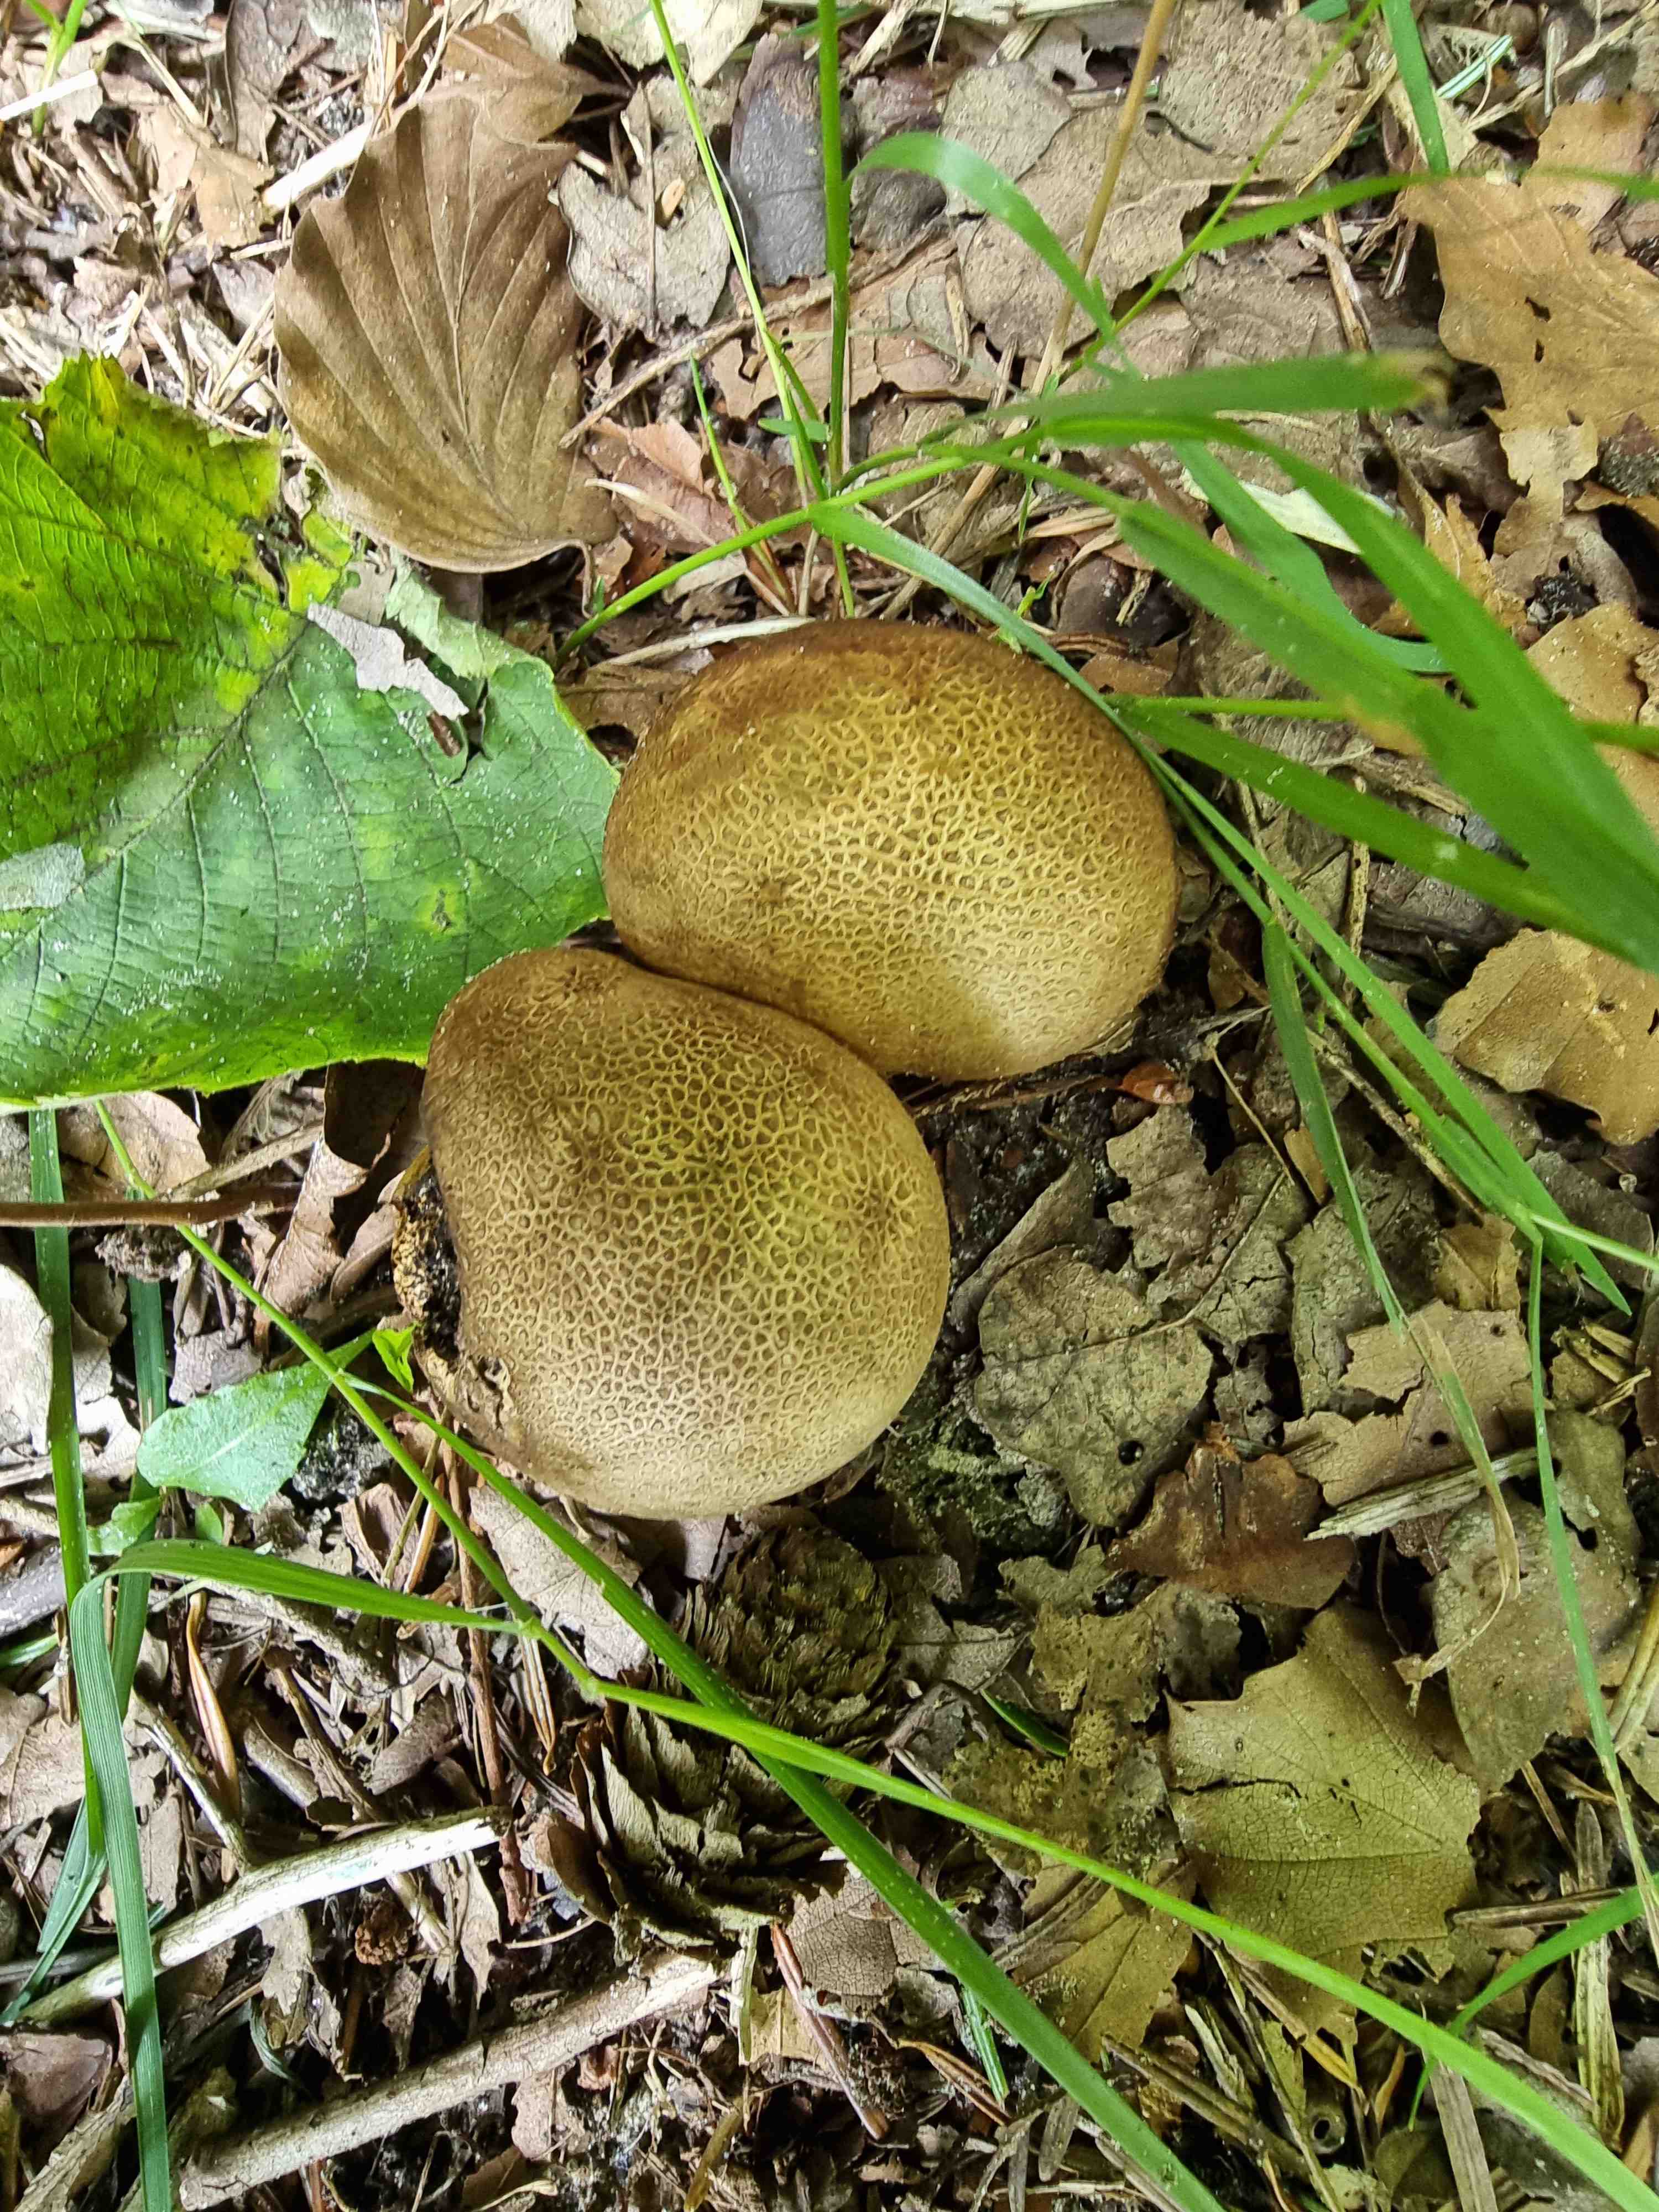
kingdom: Fungi
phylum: Basidiomycota
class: Agaricomycetes
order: Boletales
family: Sclerodermataceae
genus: Scleroderma
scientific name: Scleroderma
